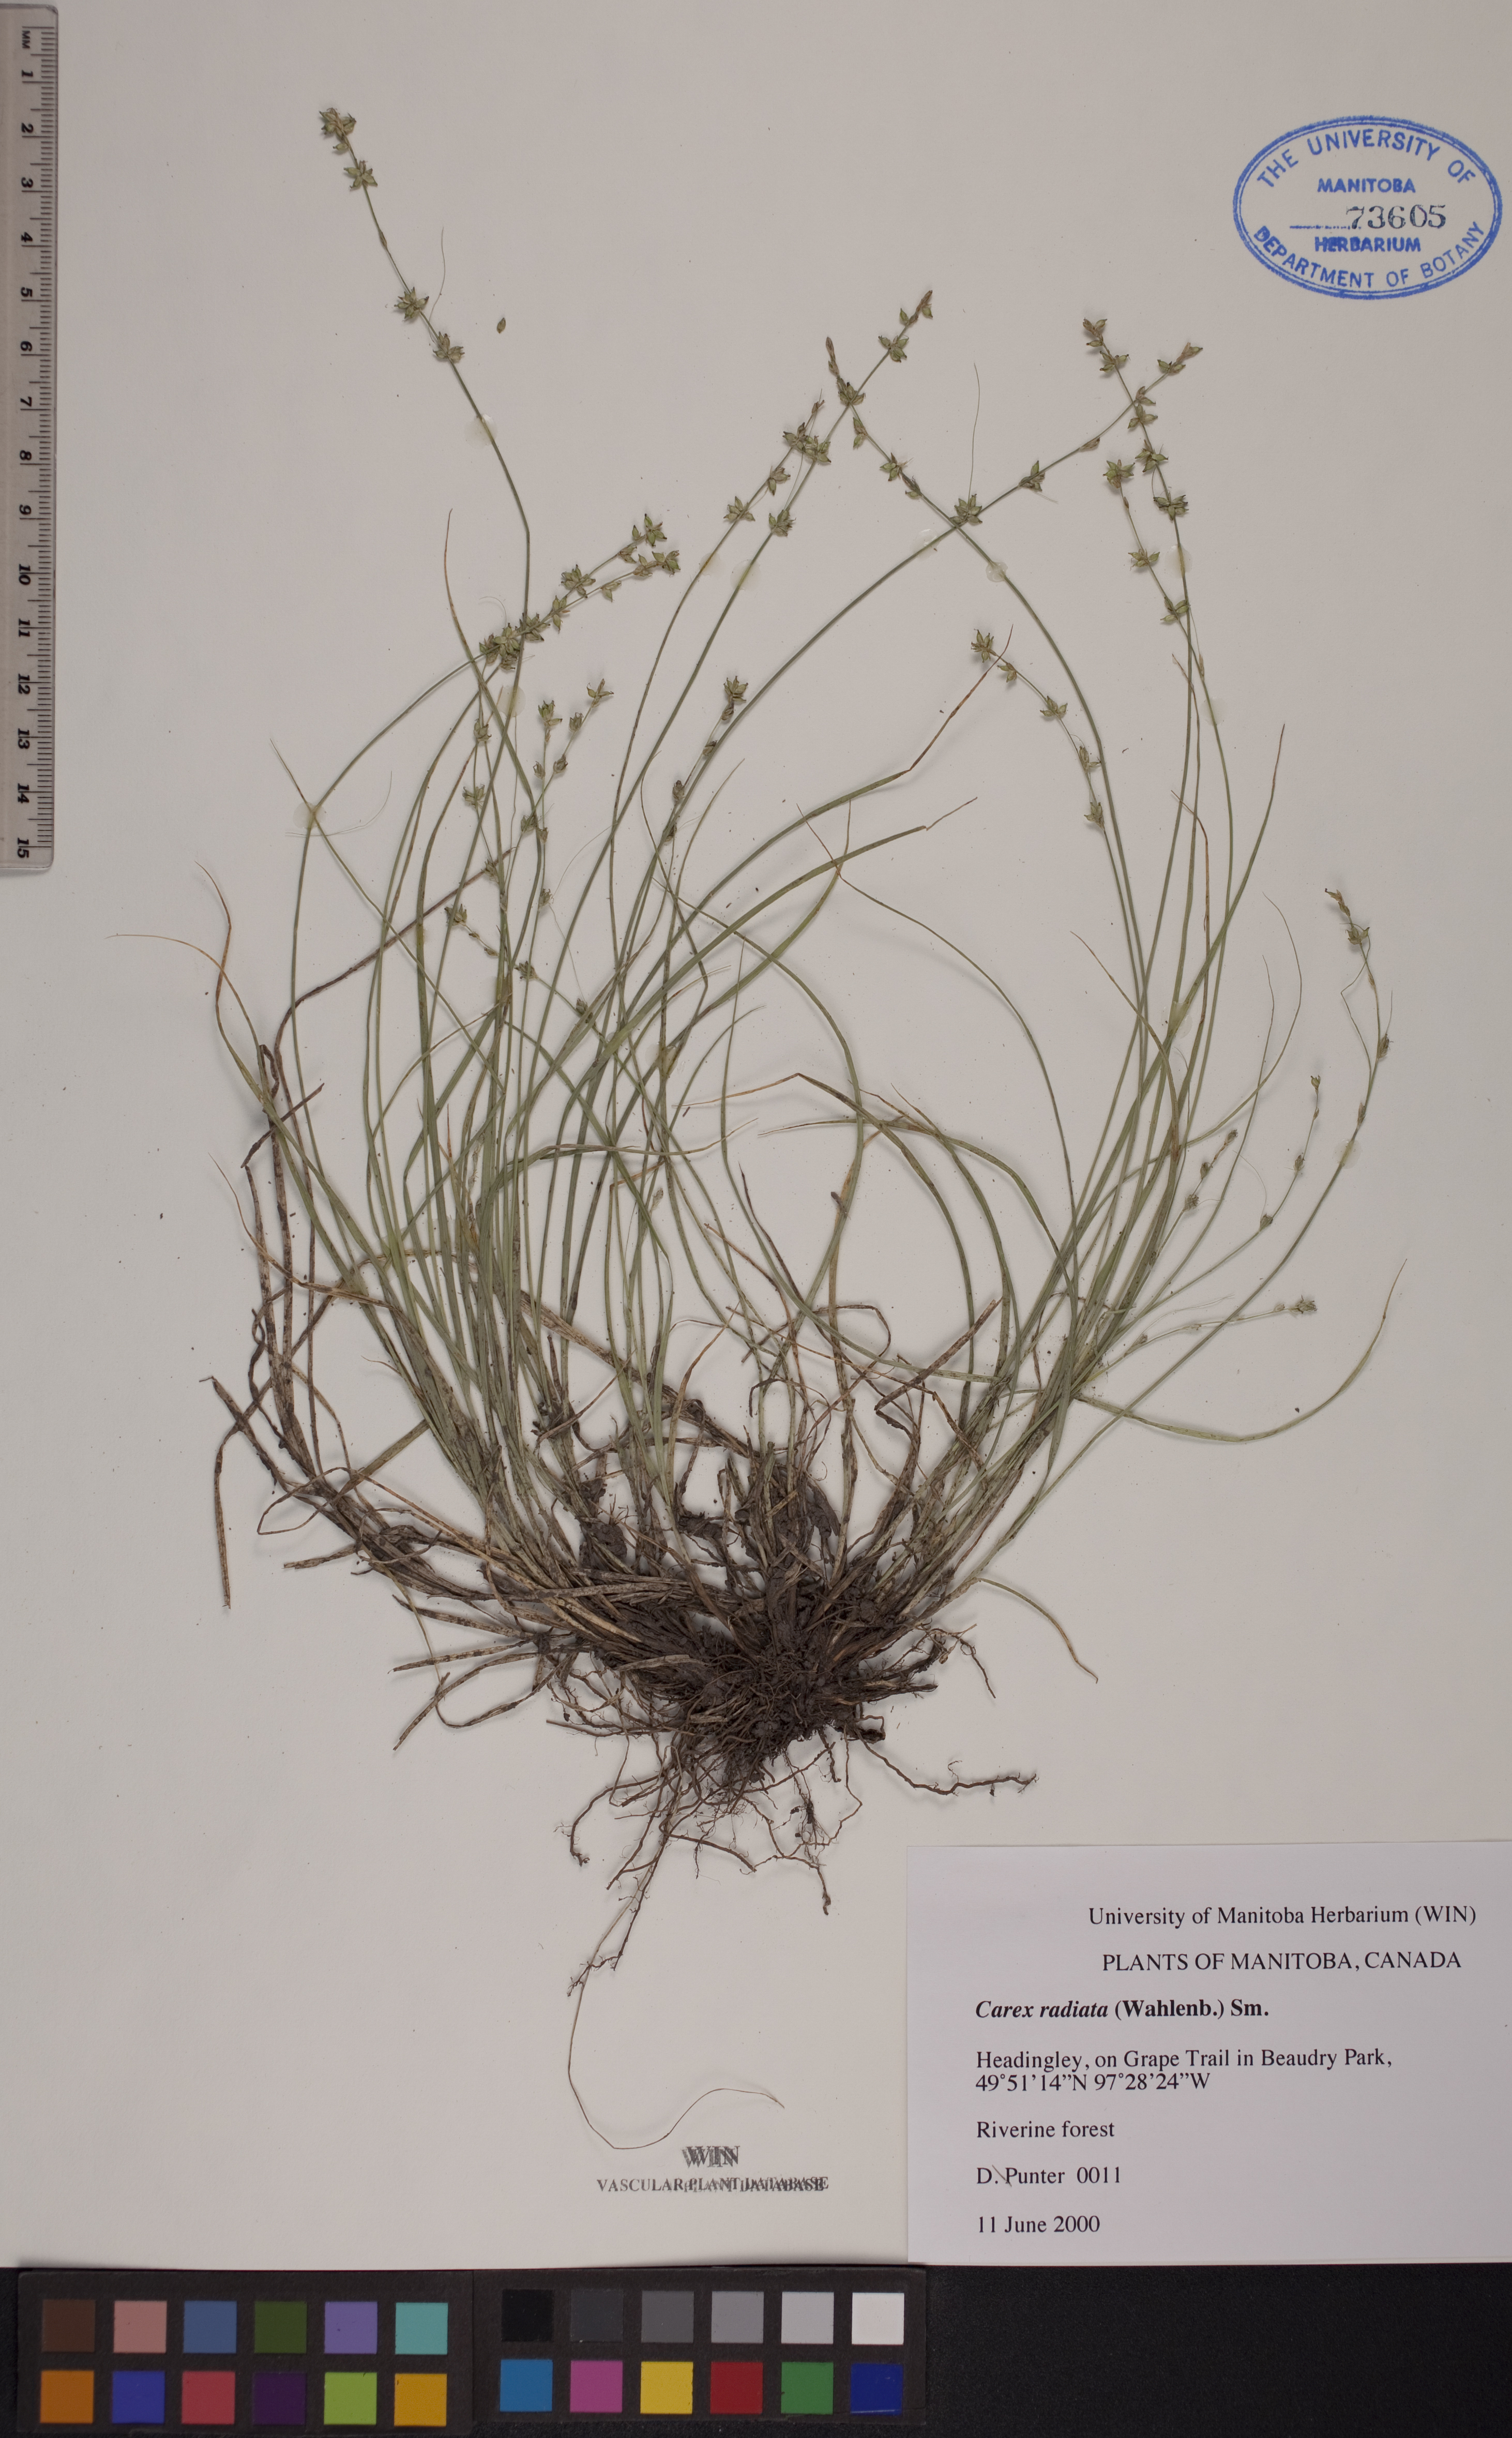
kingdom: Plantae
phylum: Tracheophyta
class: Liliopsida
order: Poales
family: Cyperaceae
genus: Carex
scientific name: Carex radiata
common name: Eastern star sedge
